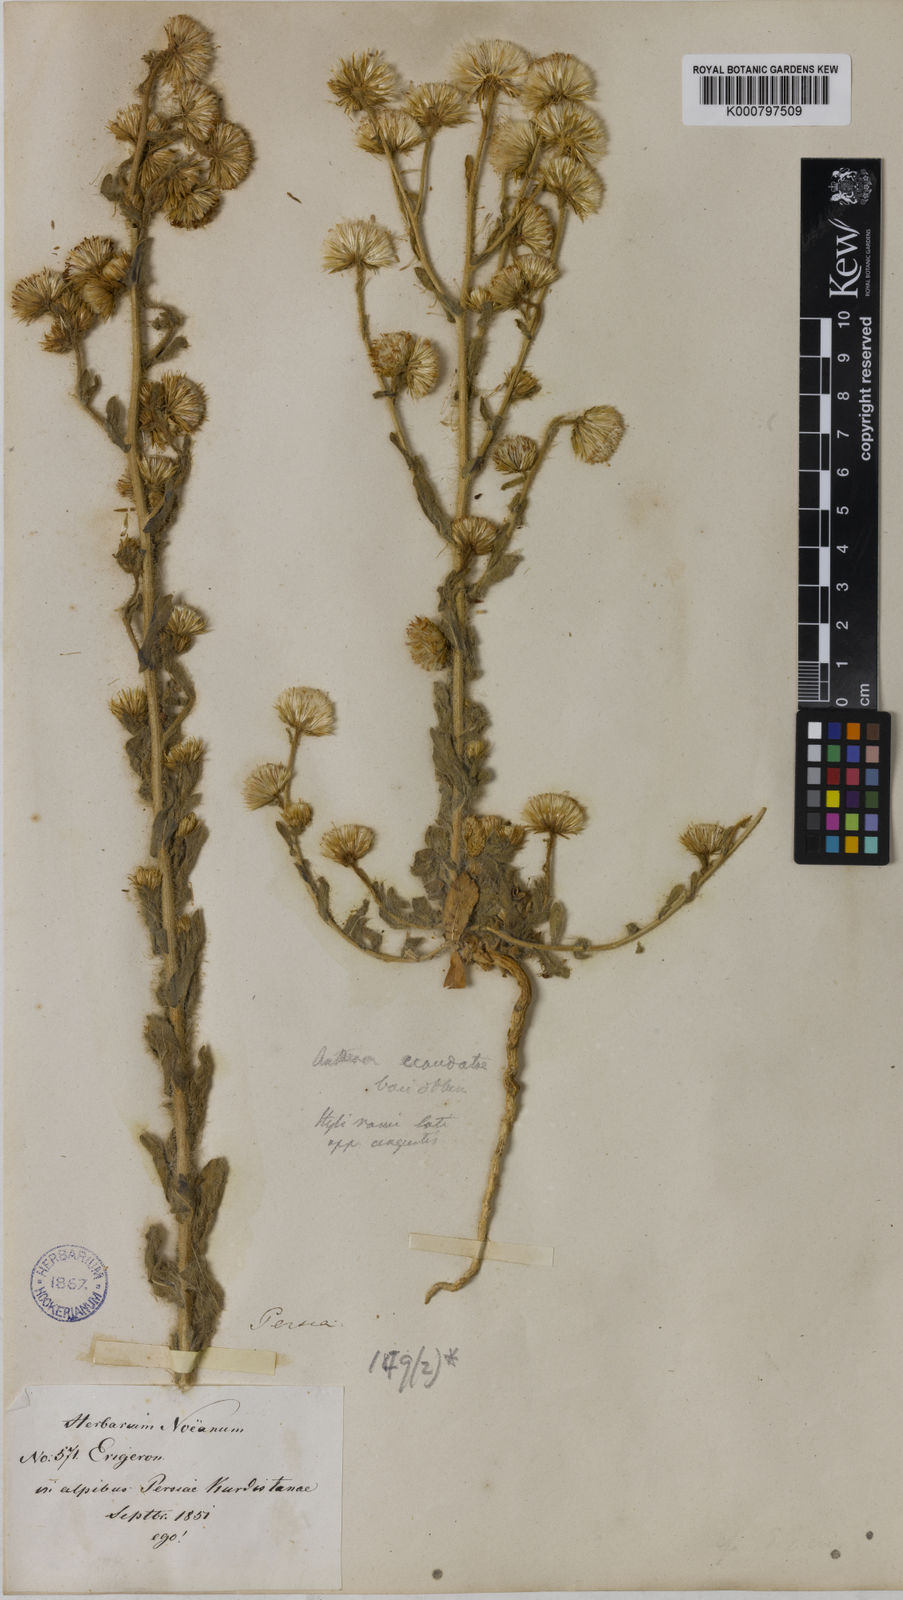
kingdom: Plantae
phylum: Tracheophyta
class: Magnoliopsida
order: Asterales
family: Asteraceae
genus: Lachnophyllum
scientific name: Lachnophyllum noeanum
